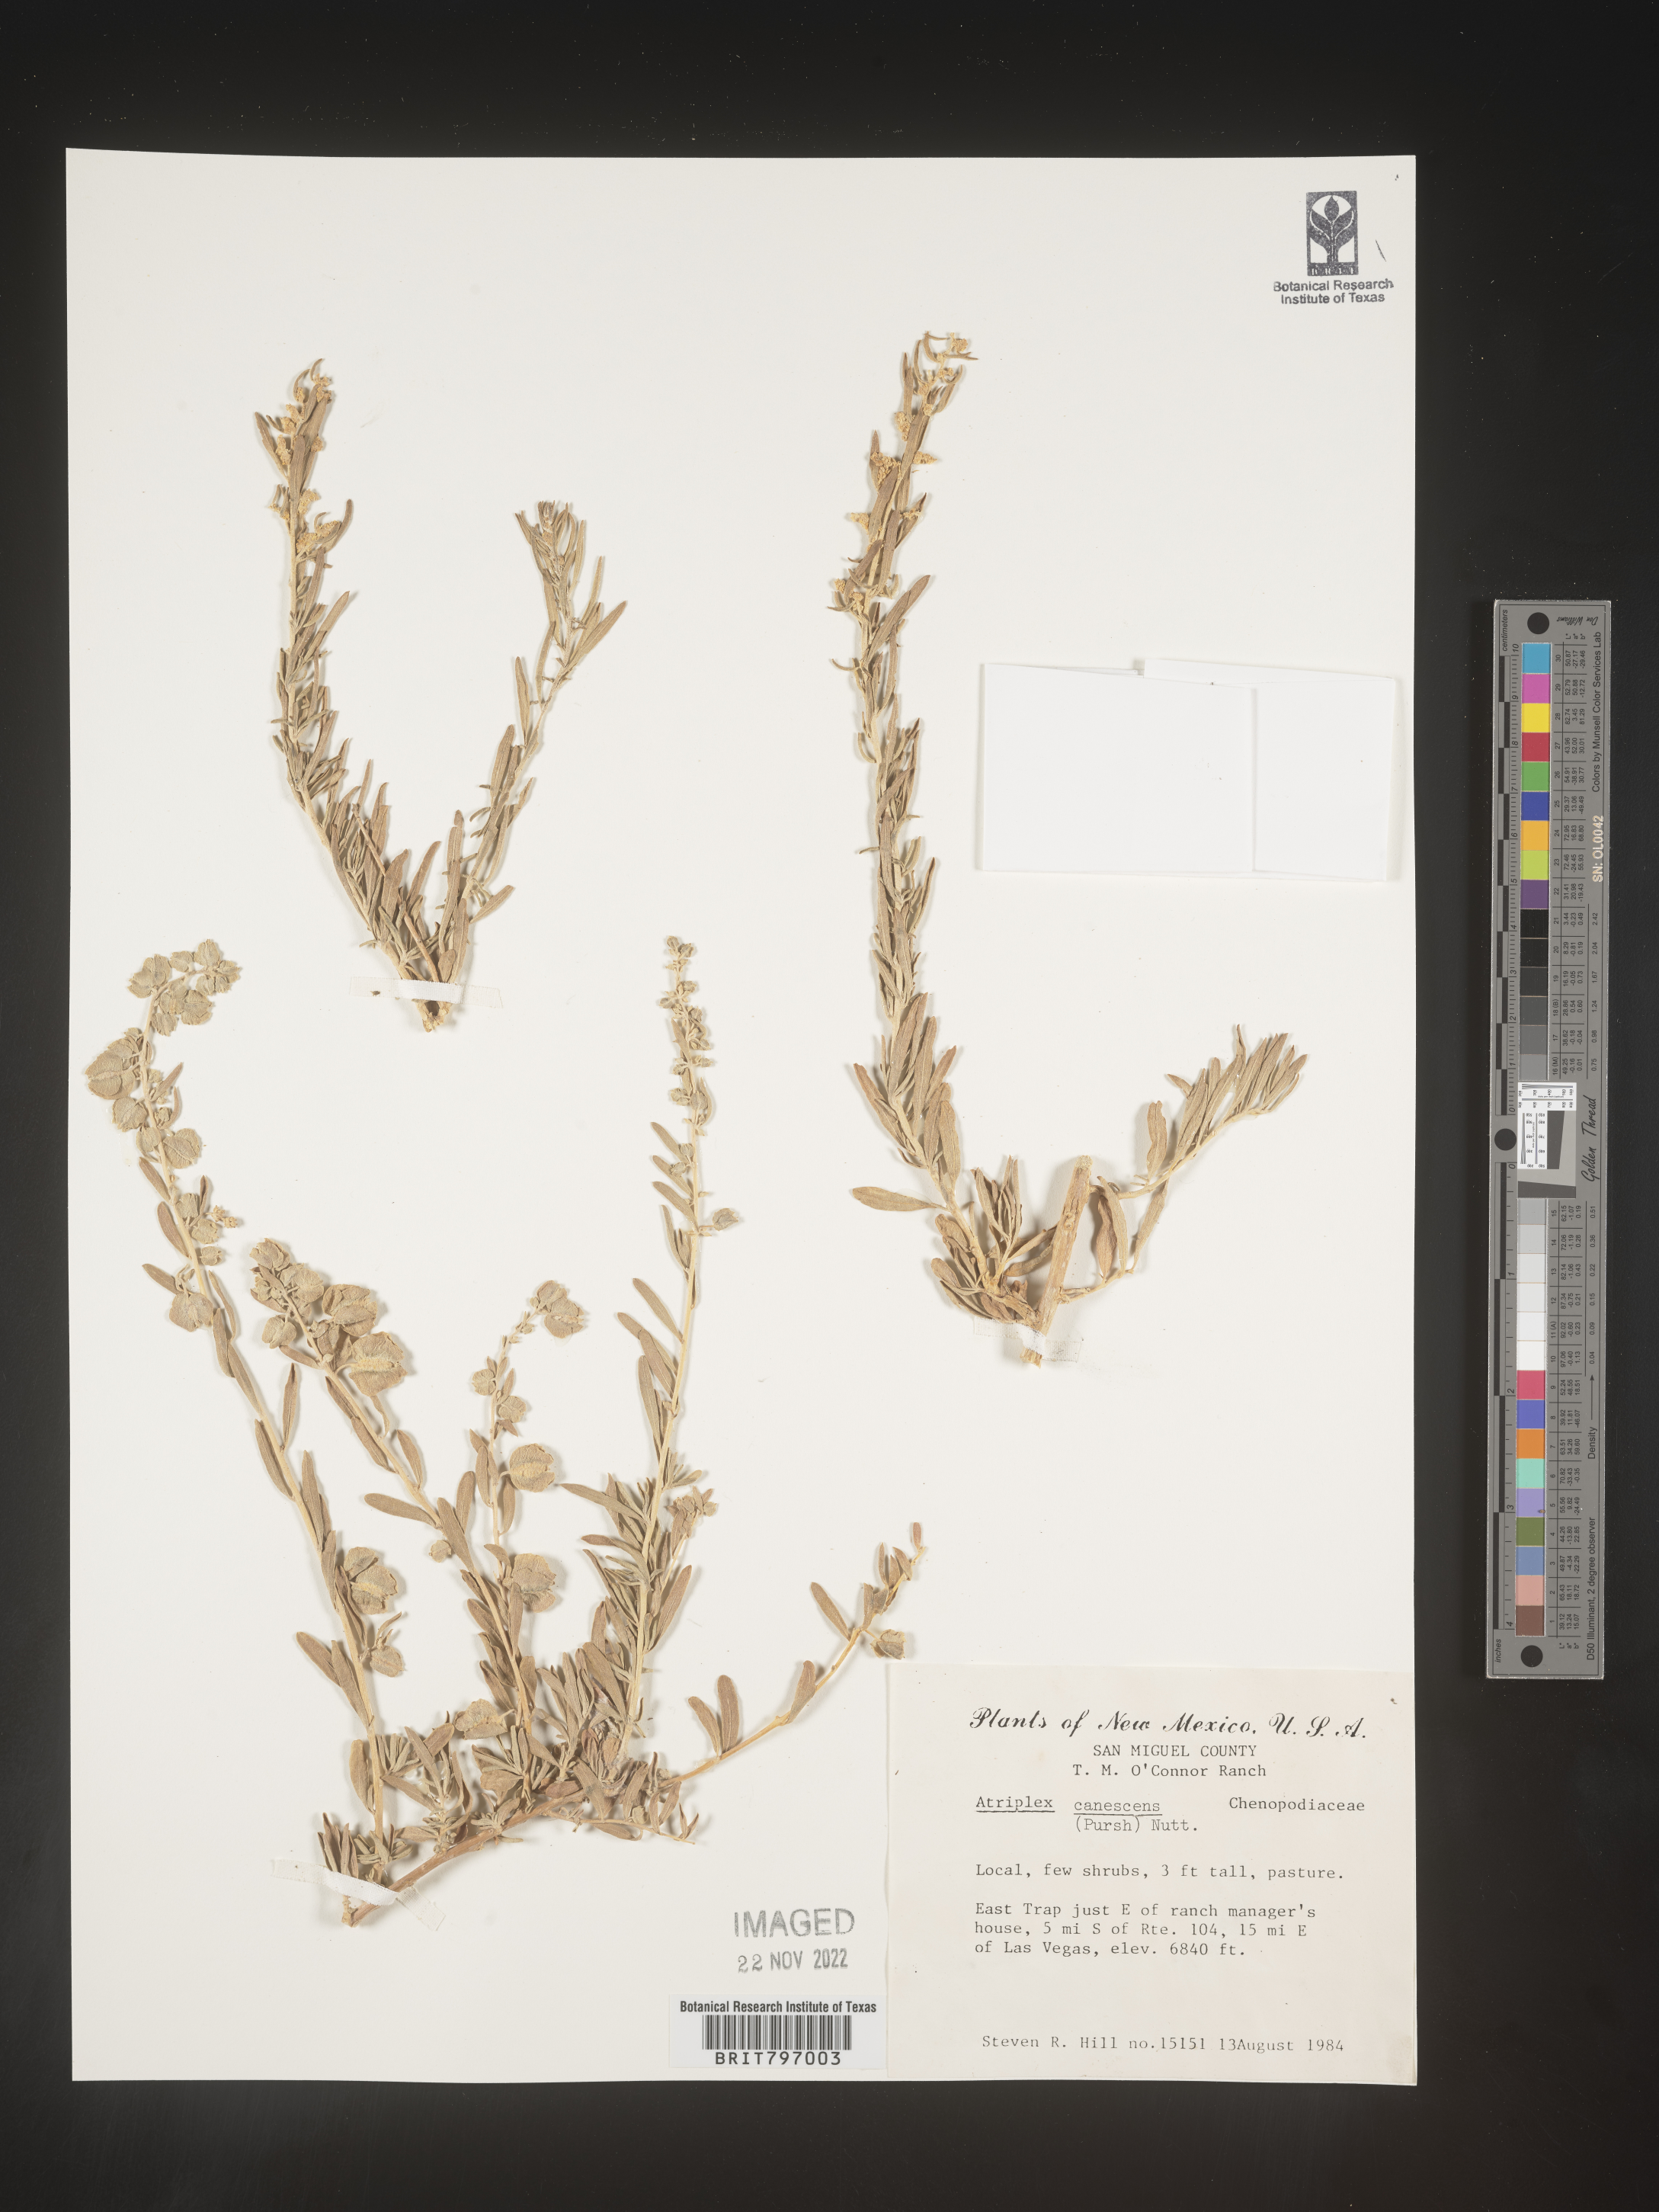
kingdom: Plantae
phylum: Tracheophyta
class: Magnoliopsida
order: Caryophyllales
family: Amaranthaceae
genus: Atriplex
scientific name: Atriplex canescens
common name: Four-wing saltbush
